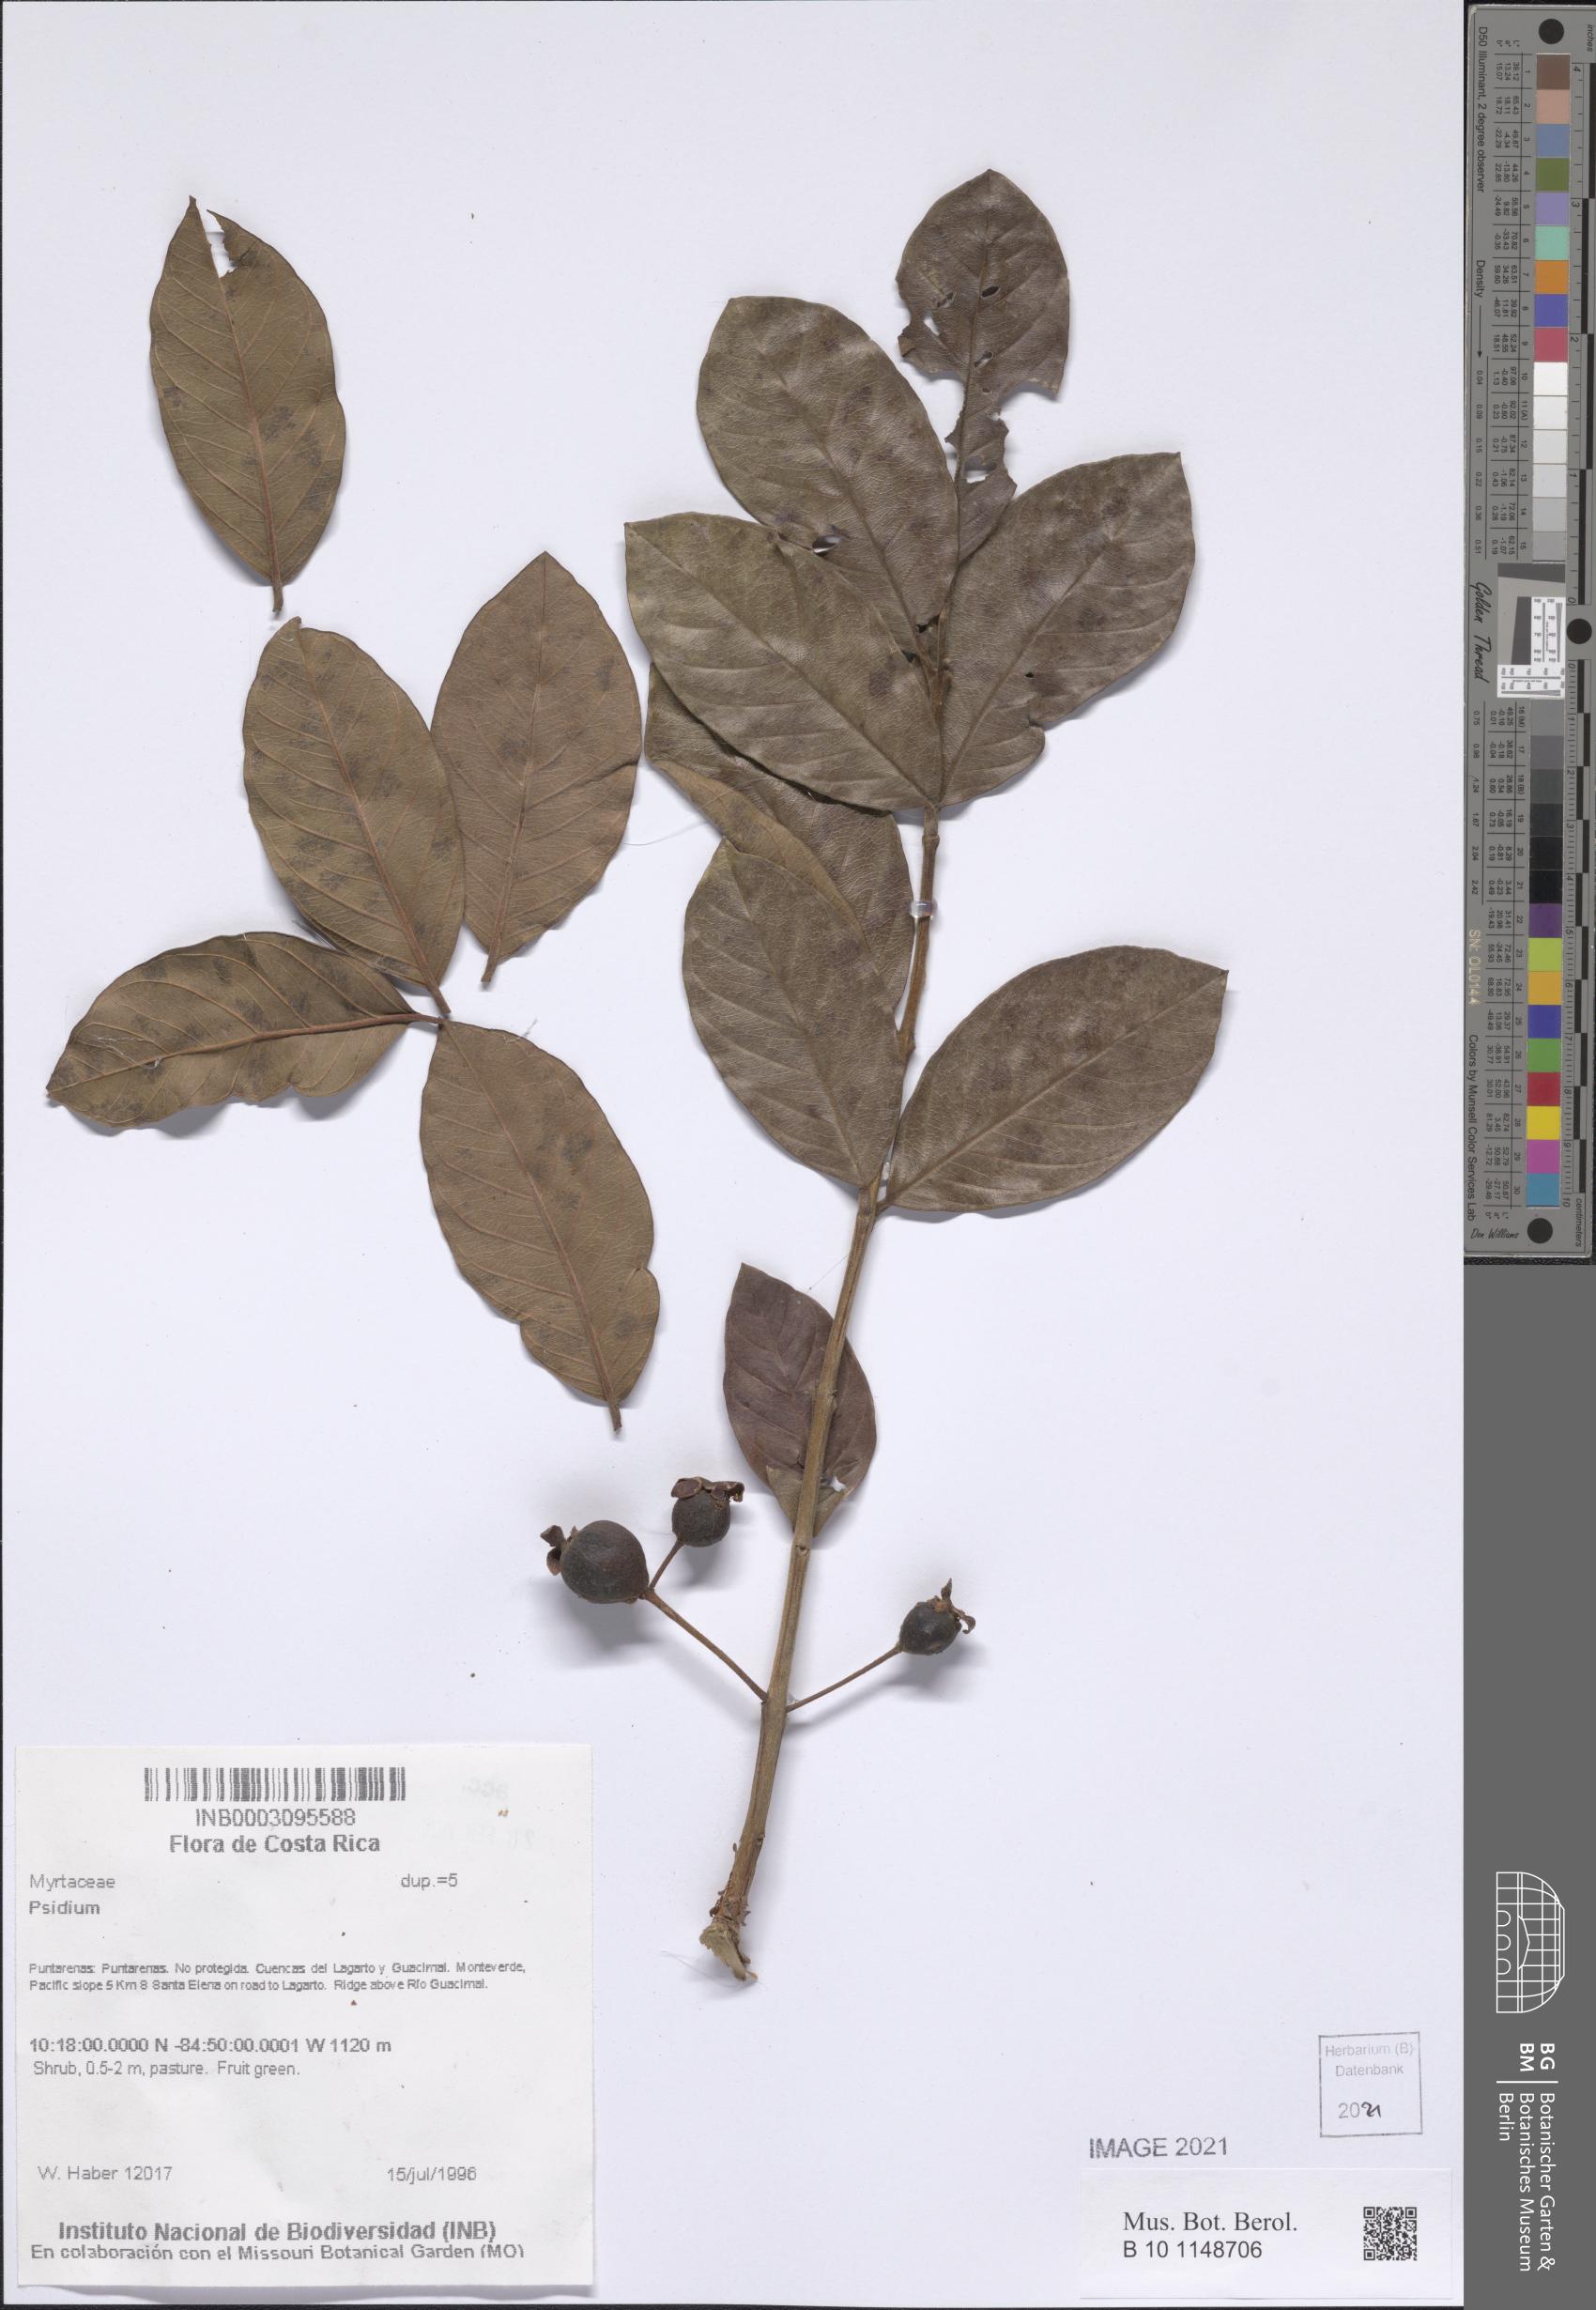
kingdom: Plantae
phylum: Tracheophyta
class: Magnoliopsida
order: Myrtales
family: Myrtaceae
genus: Psidium
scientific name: Psidium
